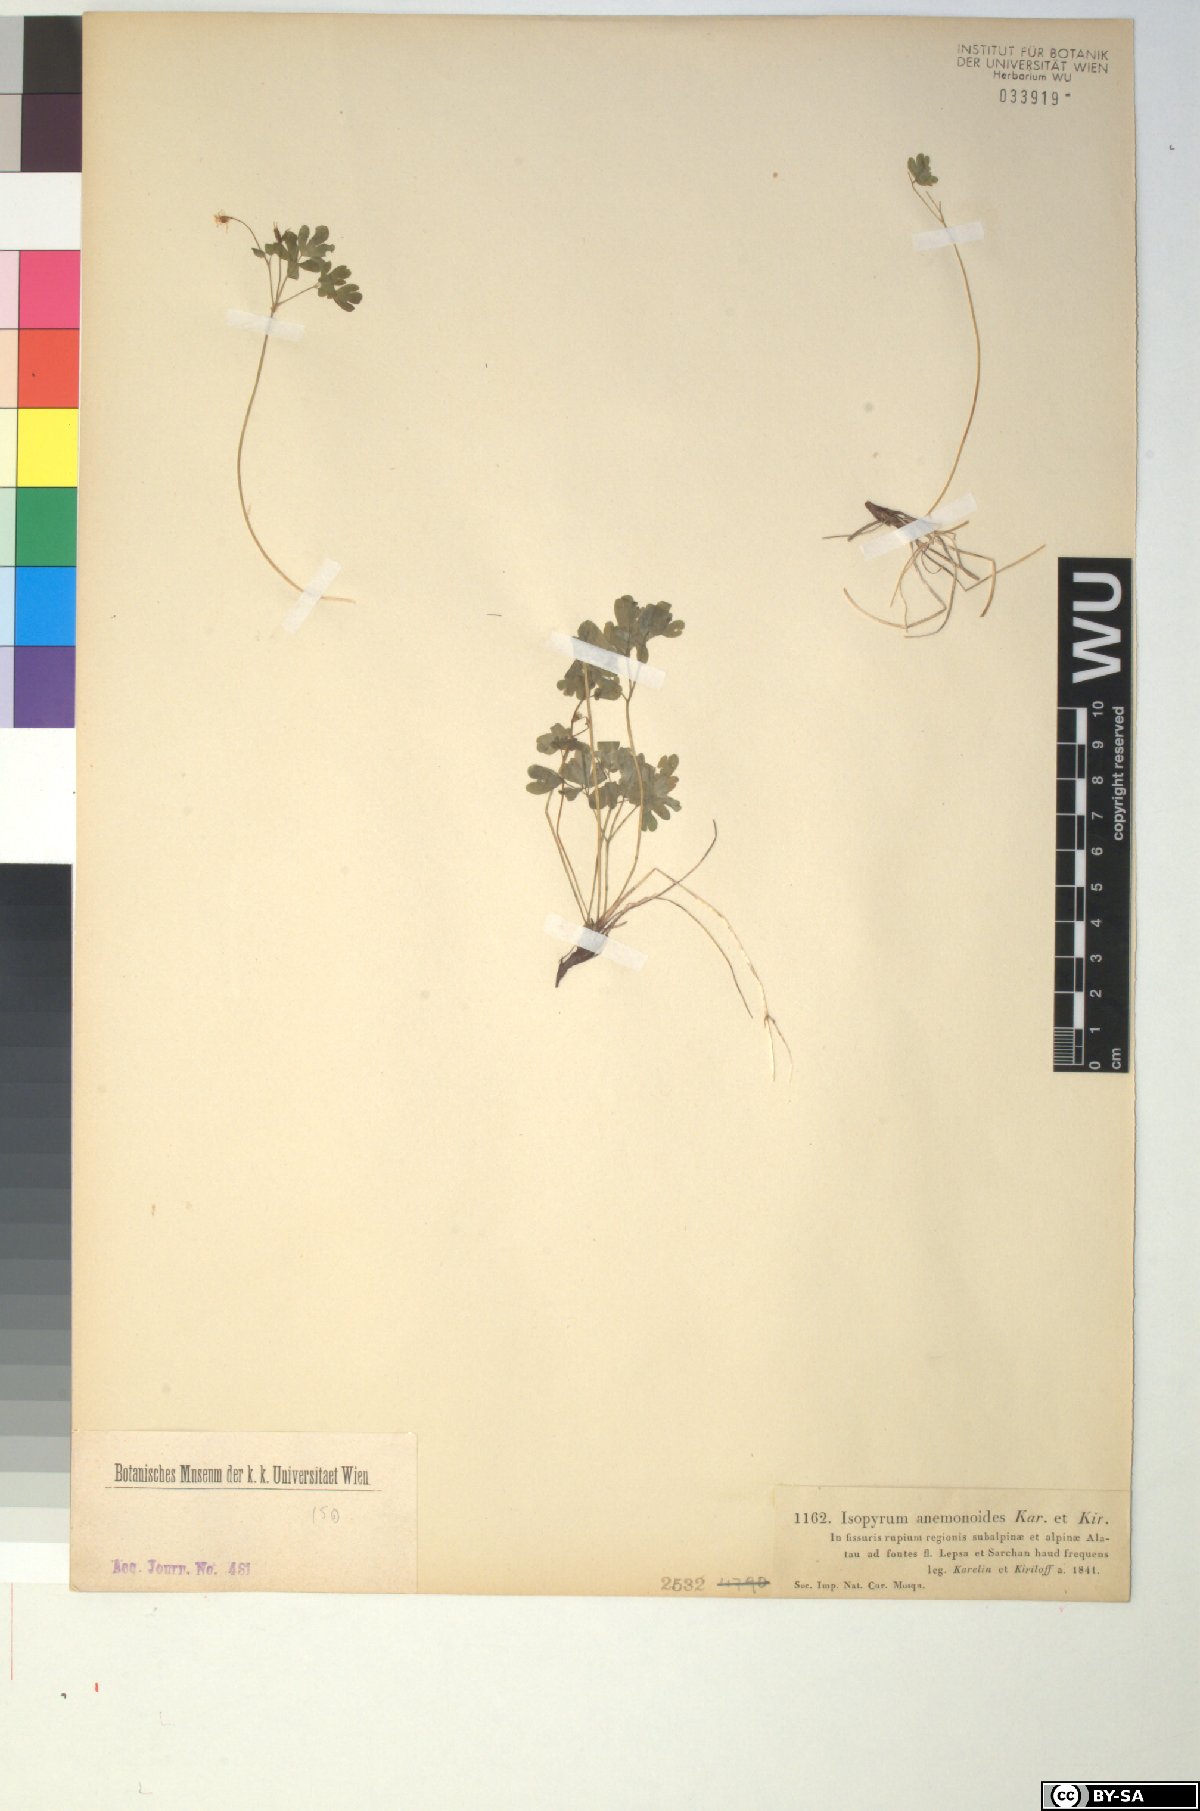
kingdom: Plantae
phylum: Tracheophyta
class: Magnoliopsida
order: Ranunculales
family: Ranunculaceae
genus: Isopyrum
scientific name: Isopyrum anemonoides
